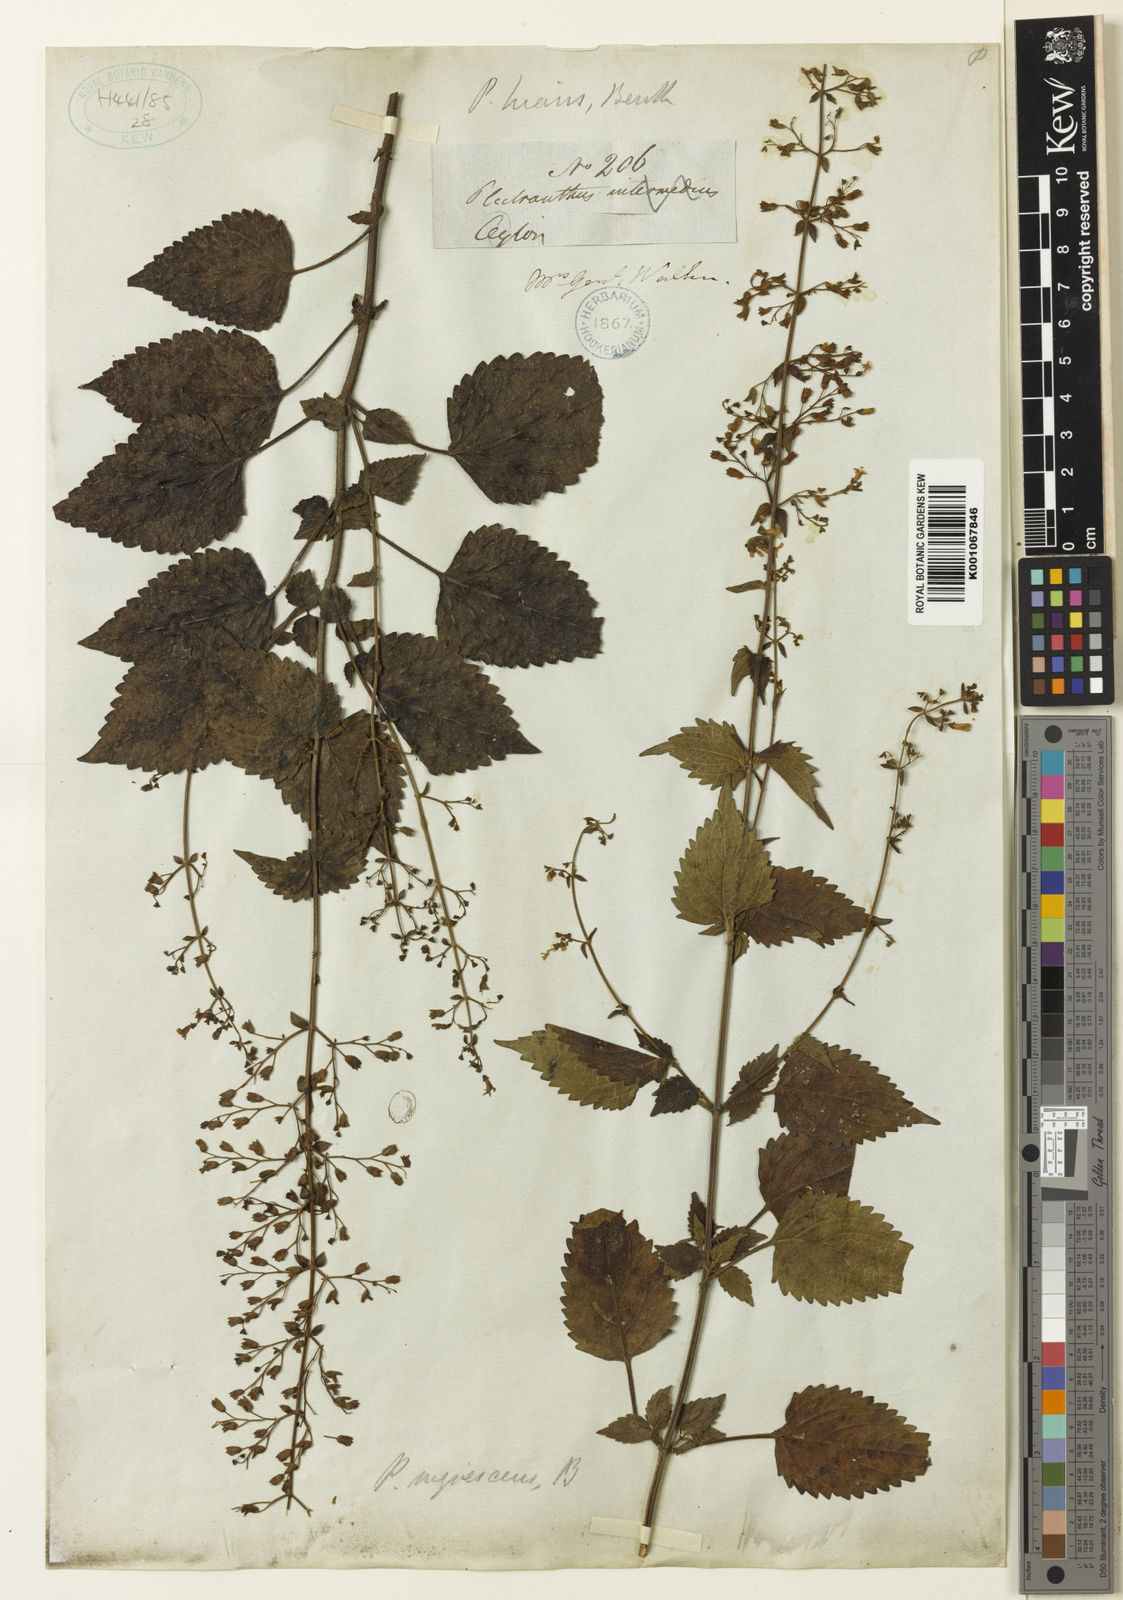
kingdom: Plantae
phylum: Tracheophyta
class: Magnoliopsida
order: Lamiales
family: Lamiaceae
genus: Isodon
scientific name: Isodon nigrescens
